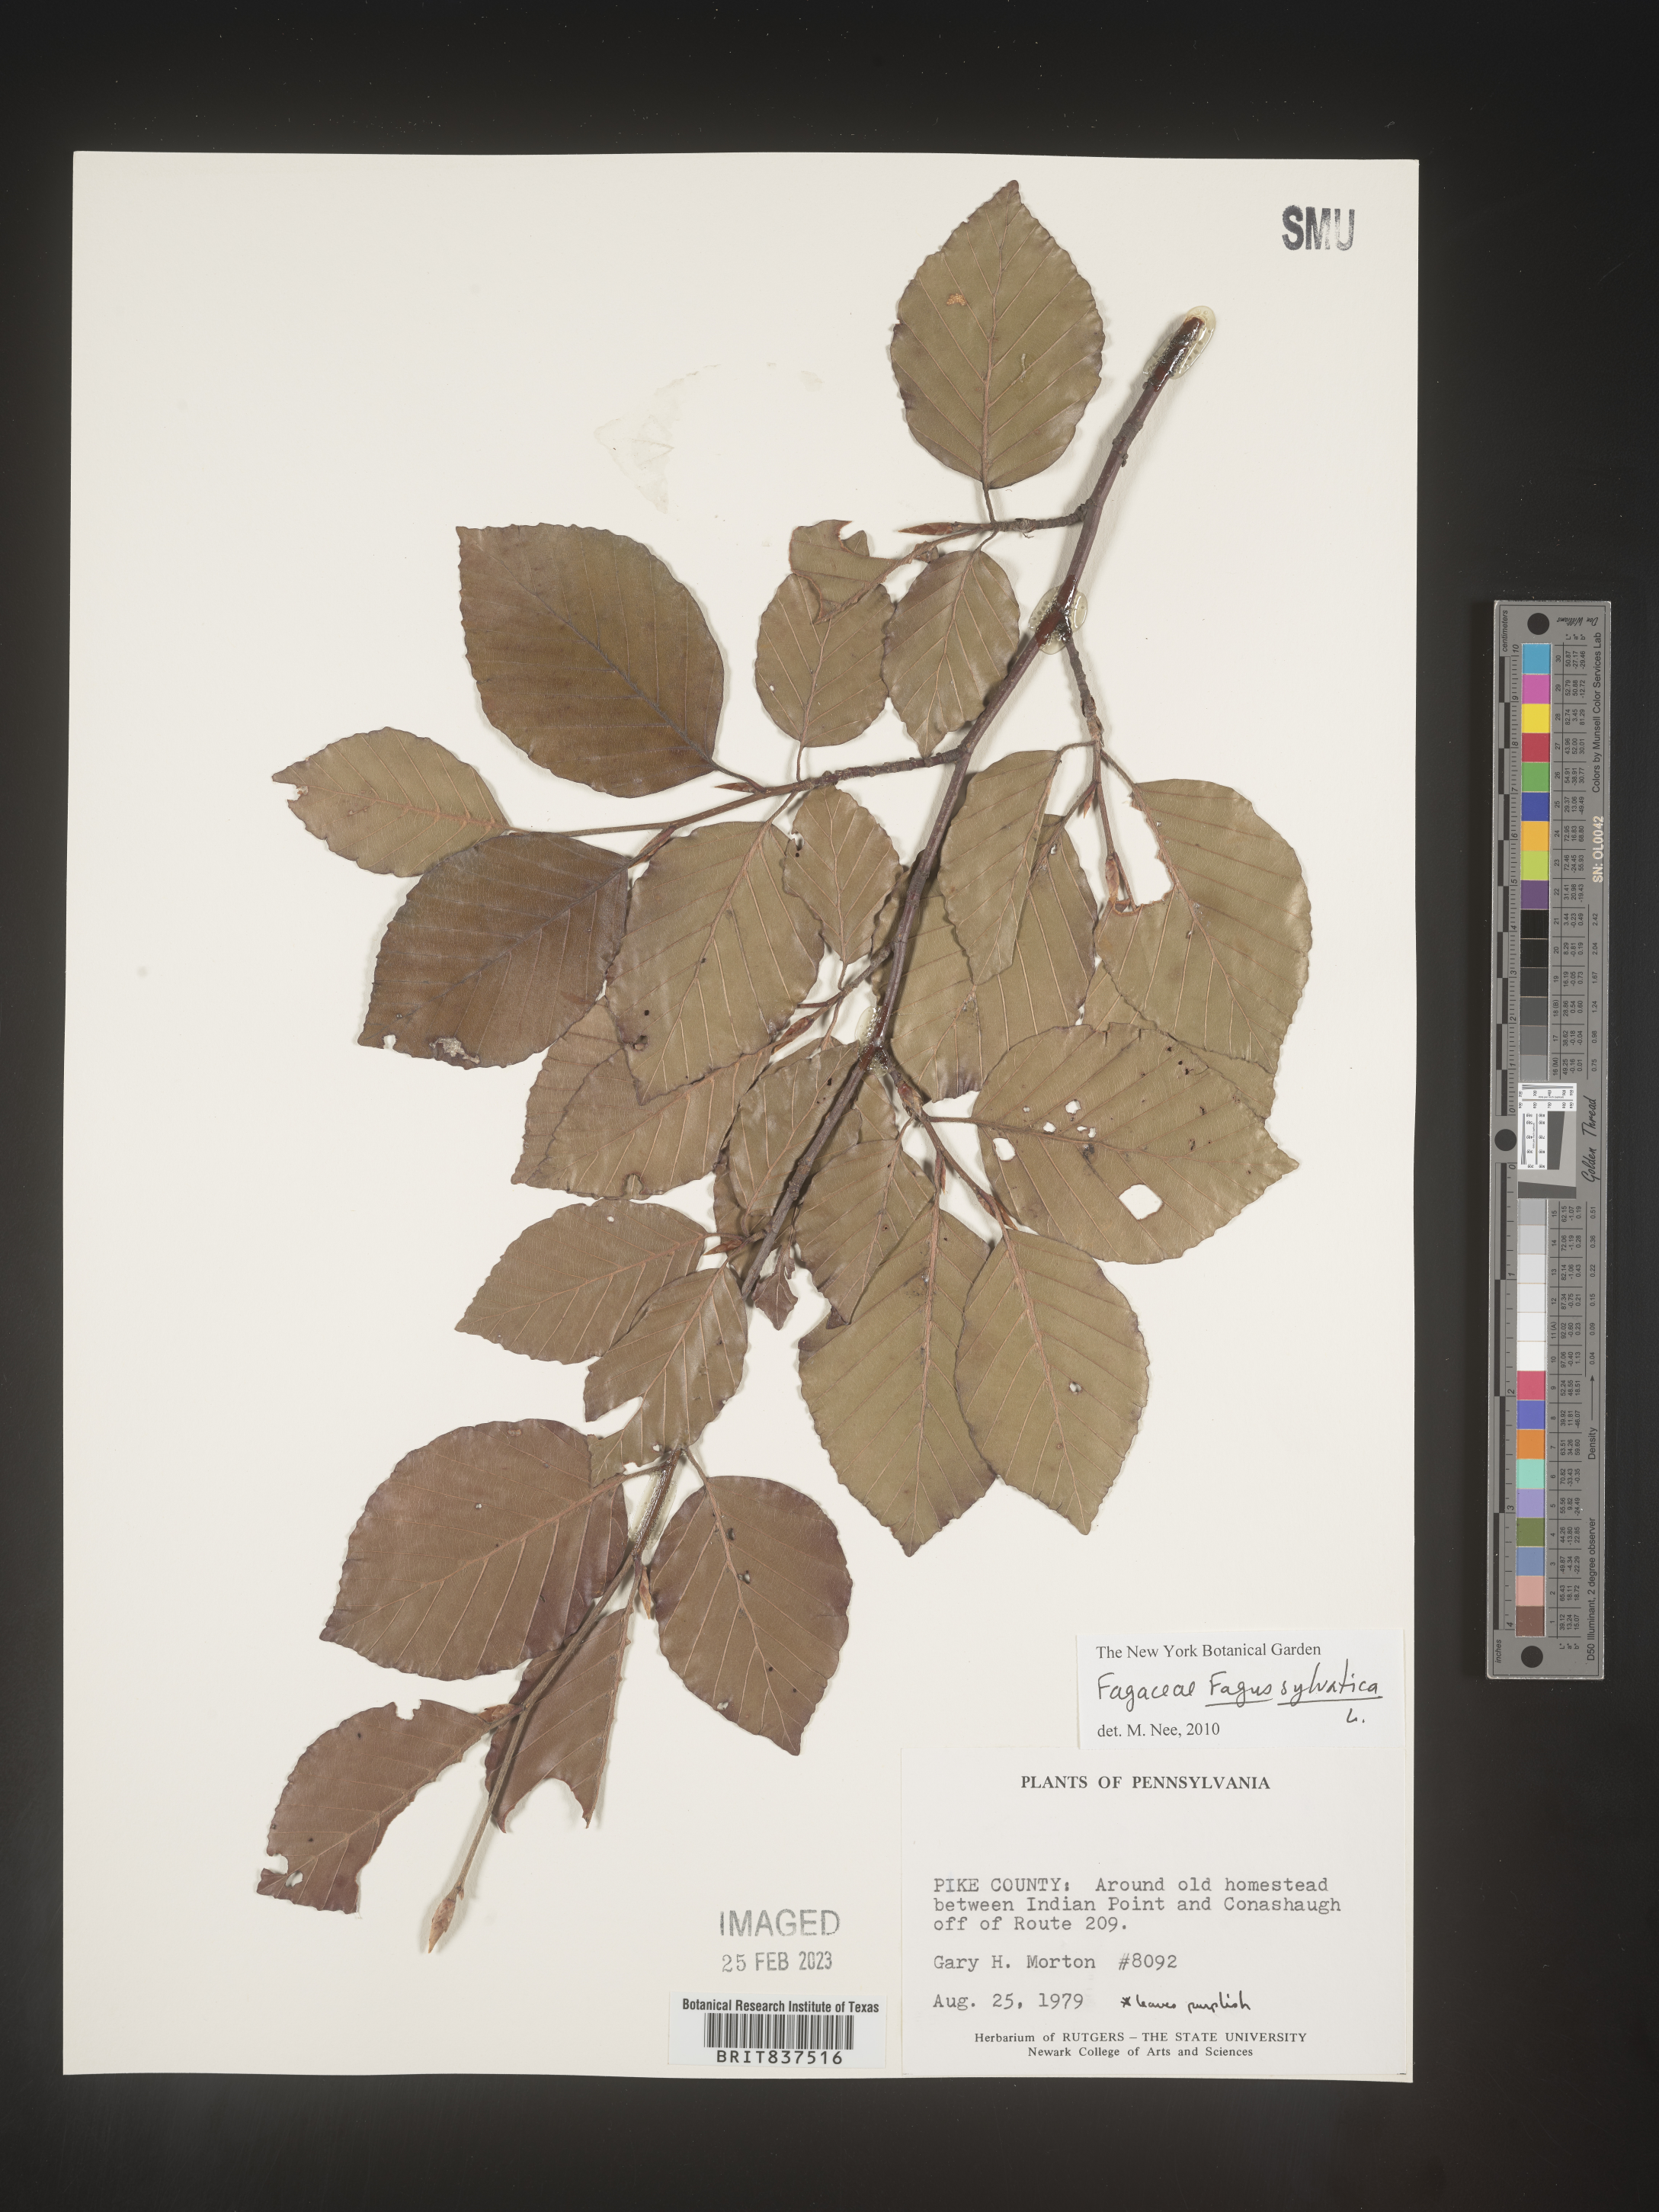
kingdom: Plantae
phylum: Tracheophyta
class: Magnoliopsida
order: Fagales
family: Fagaceae
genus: Fagus
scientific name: Fagus sylvatica
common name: Beech
